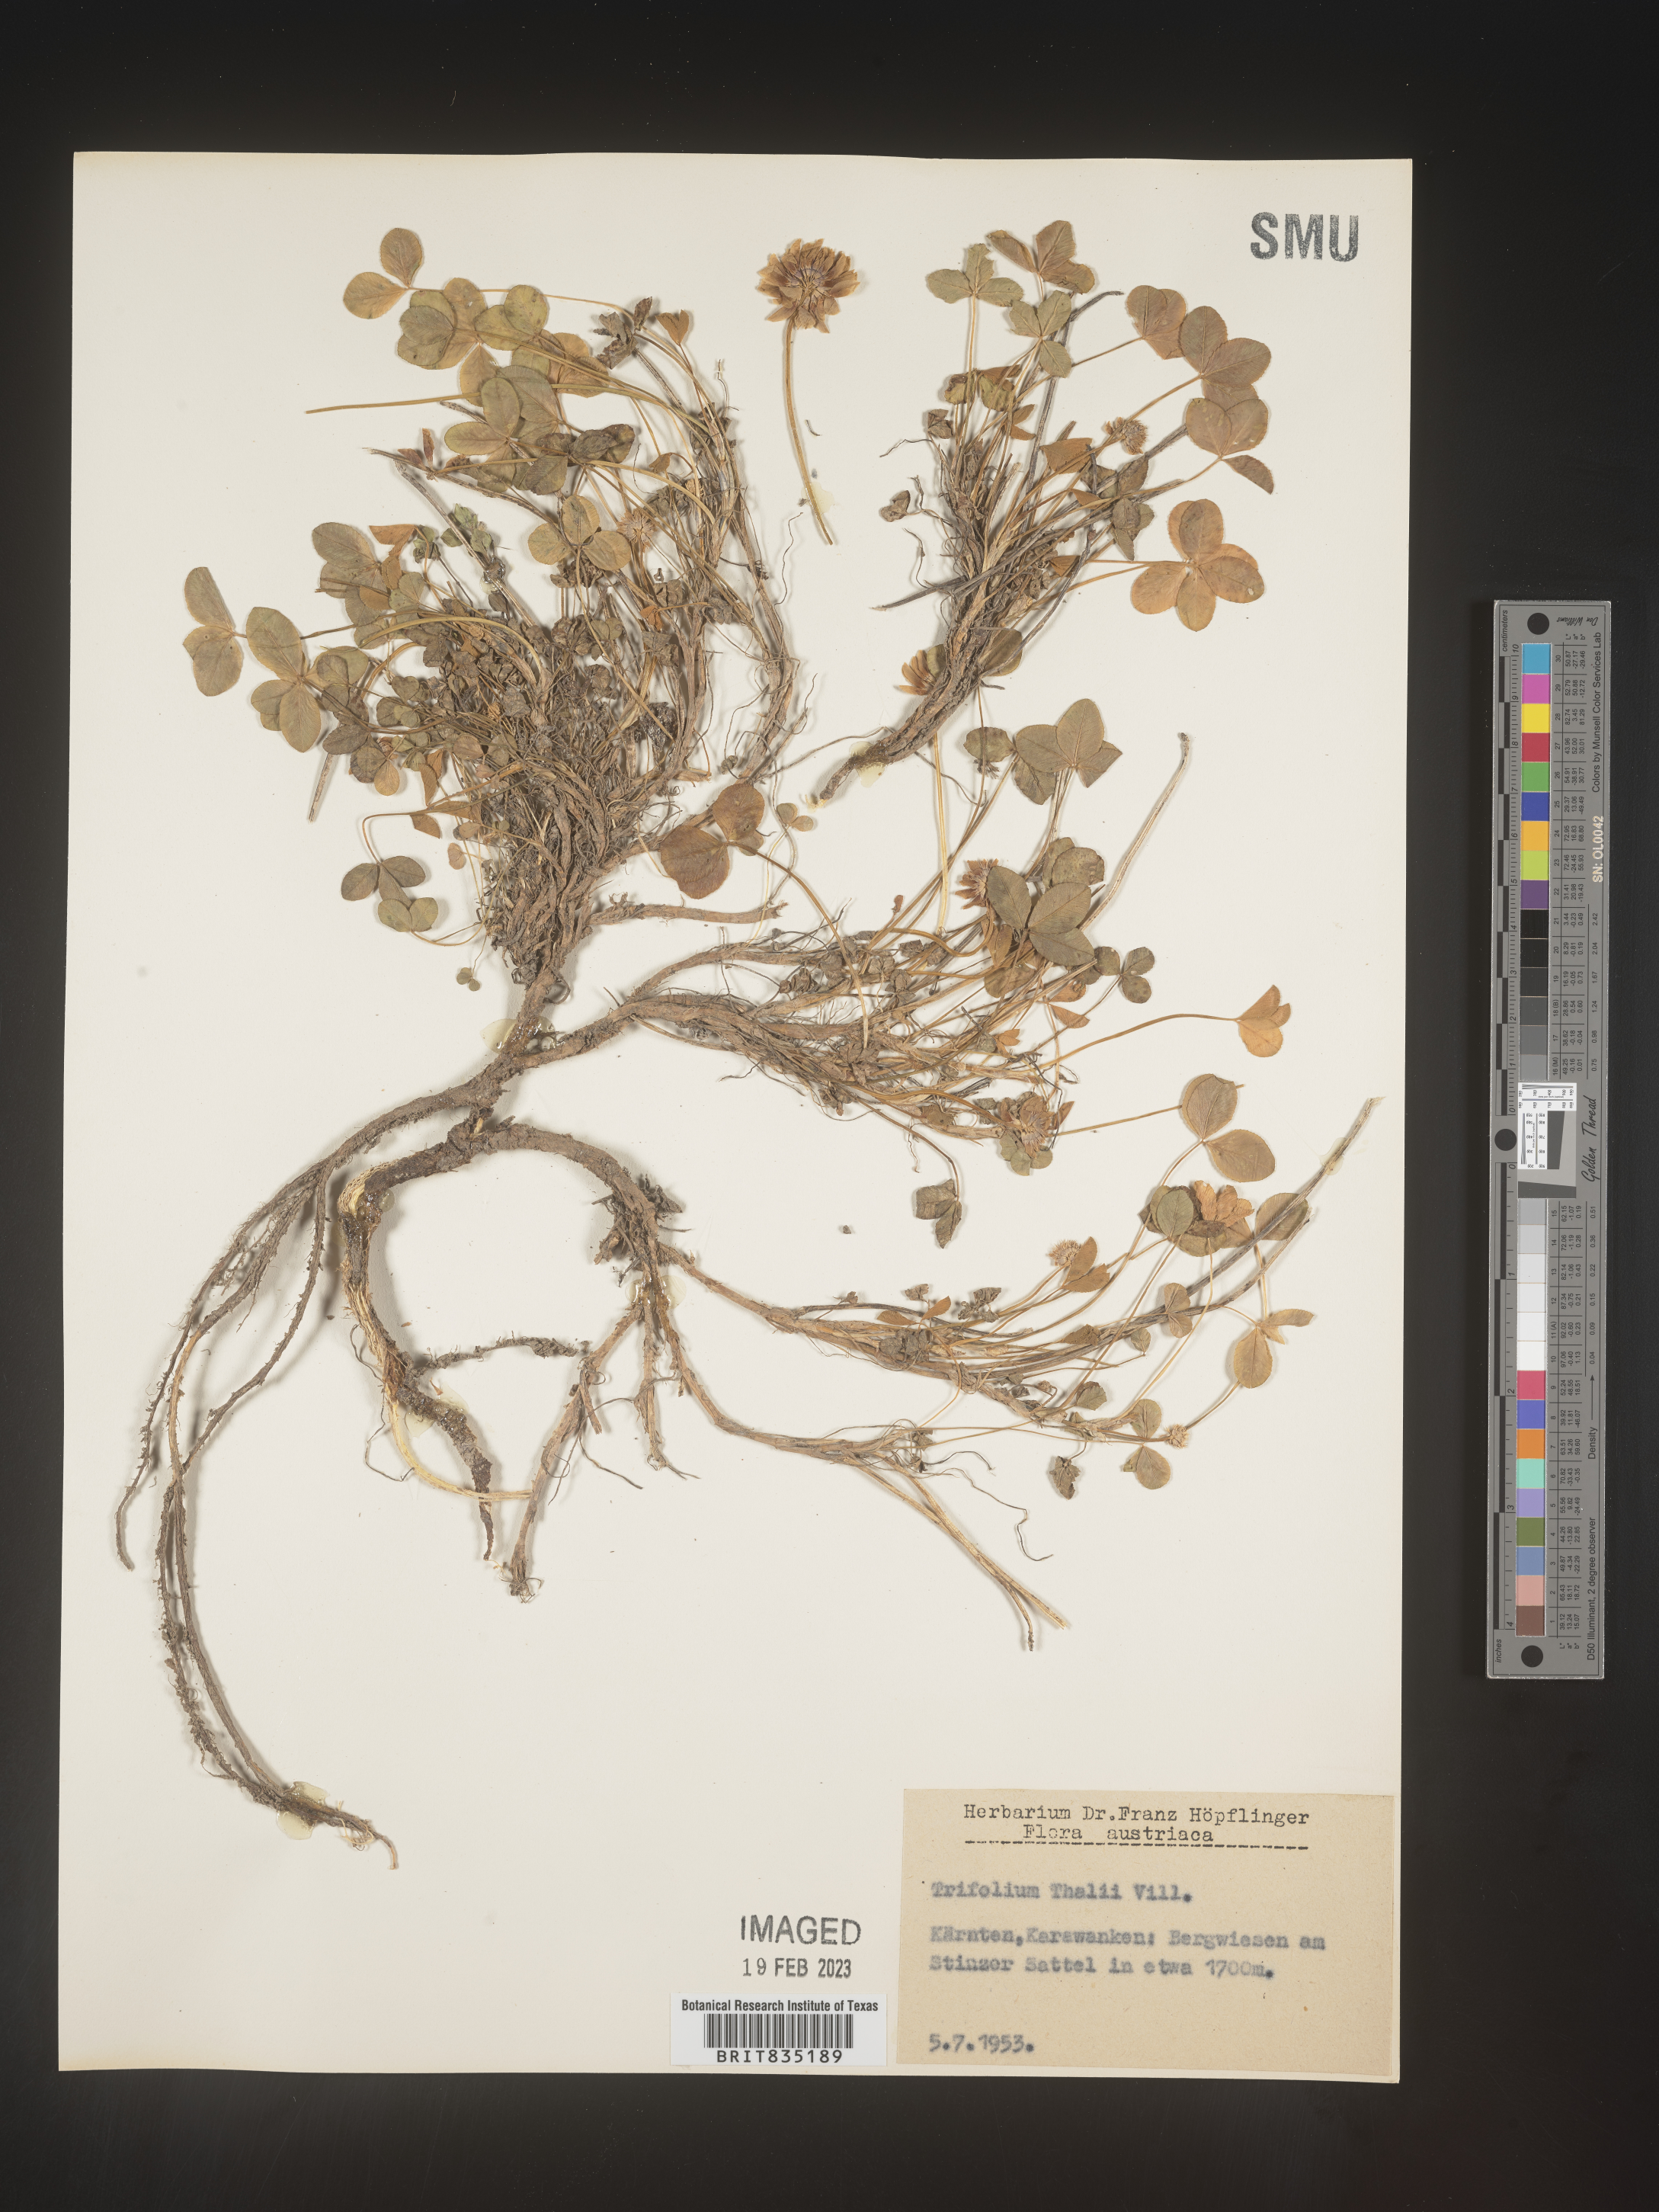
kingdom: Plantae
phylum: Tracheophyta
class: Magnoliopsida
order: Fabales
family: Fabaceae
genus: Trifolium
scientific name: Trifolium
